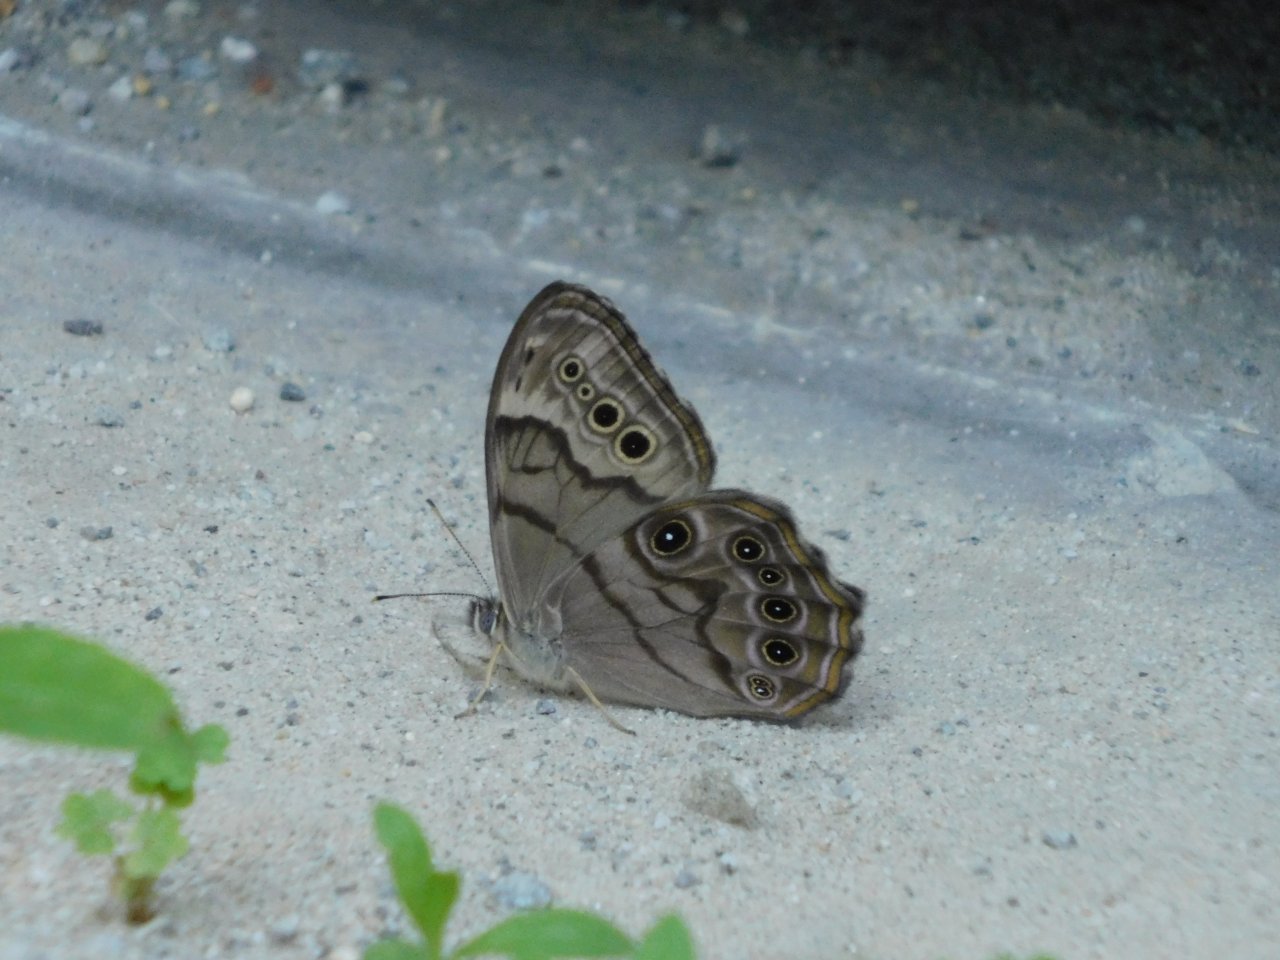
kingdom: Animalia
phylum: Arthropoda
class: Insecta
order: Lepidoptera
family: Nymphalidae
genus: Lethe
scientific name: Lethe anthedon
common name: Northern Pearly-Eye
